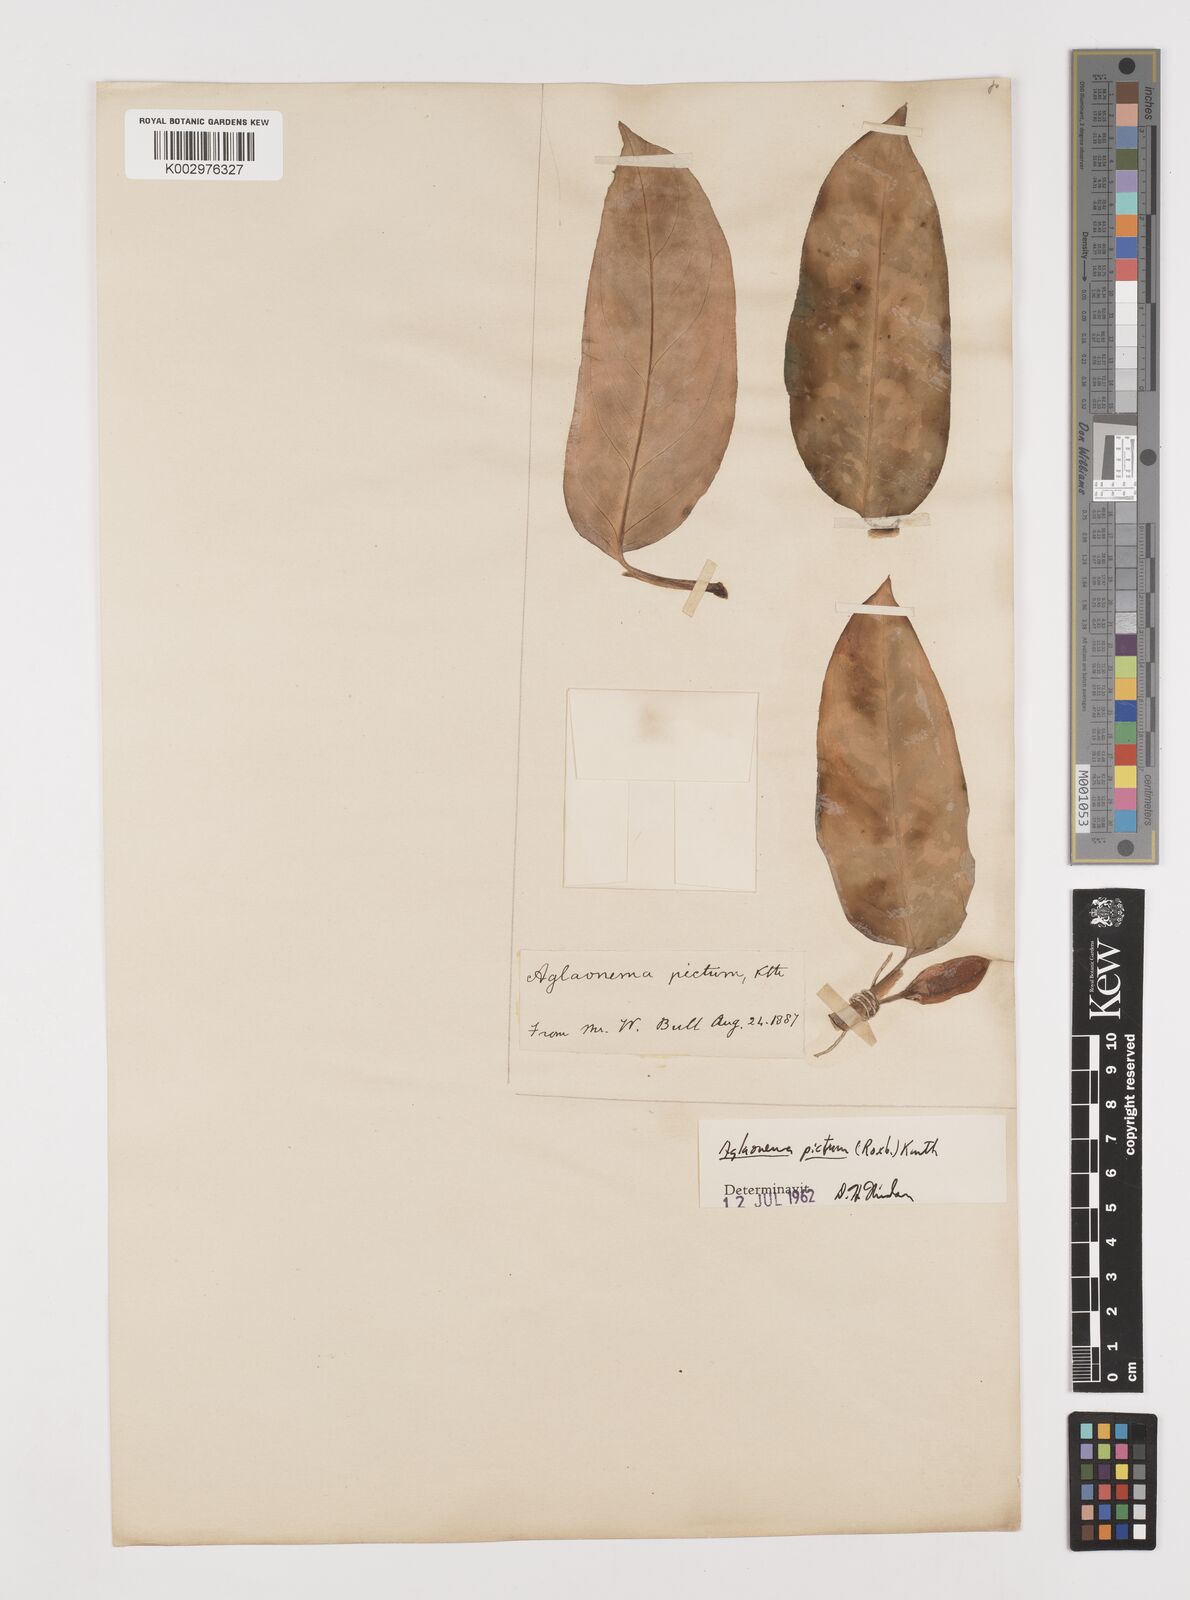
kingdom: Plantae
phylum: Tracheophyta
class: Liliopsida
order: Alismatales
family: Araceae
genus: Aglaonema
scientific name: Aglaonema pictum
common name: Aglaonema aroid
